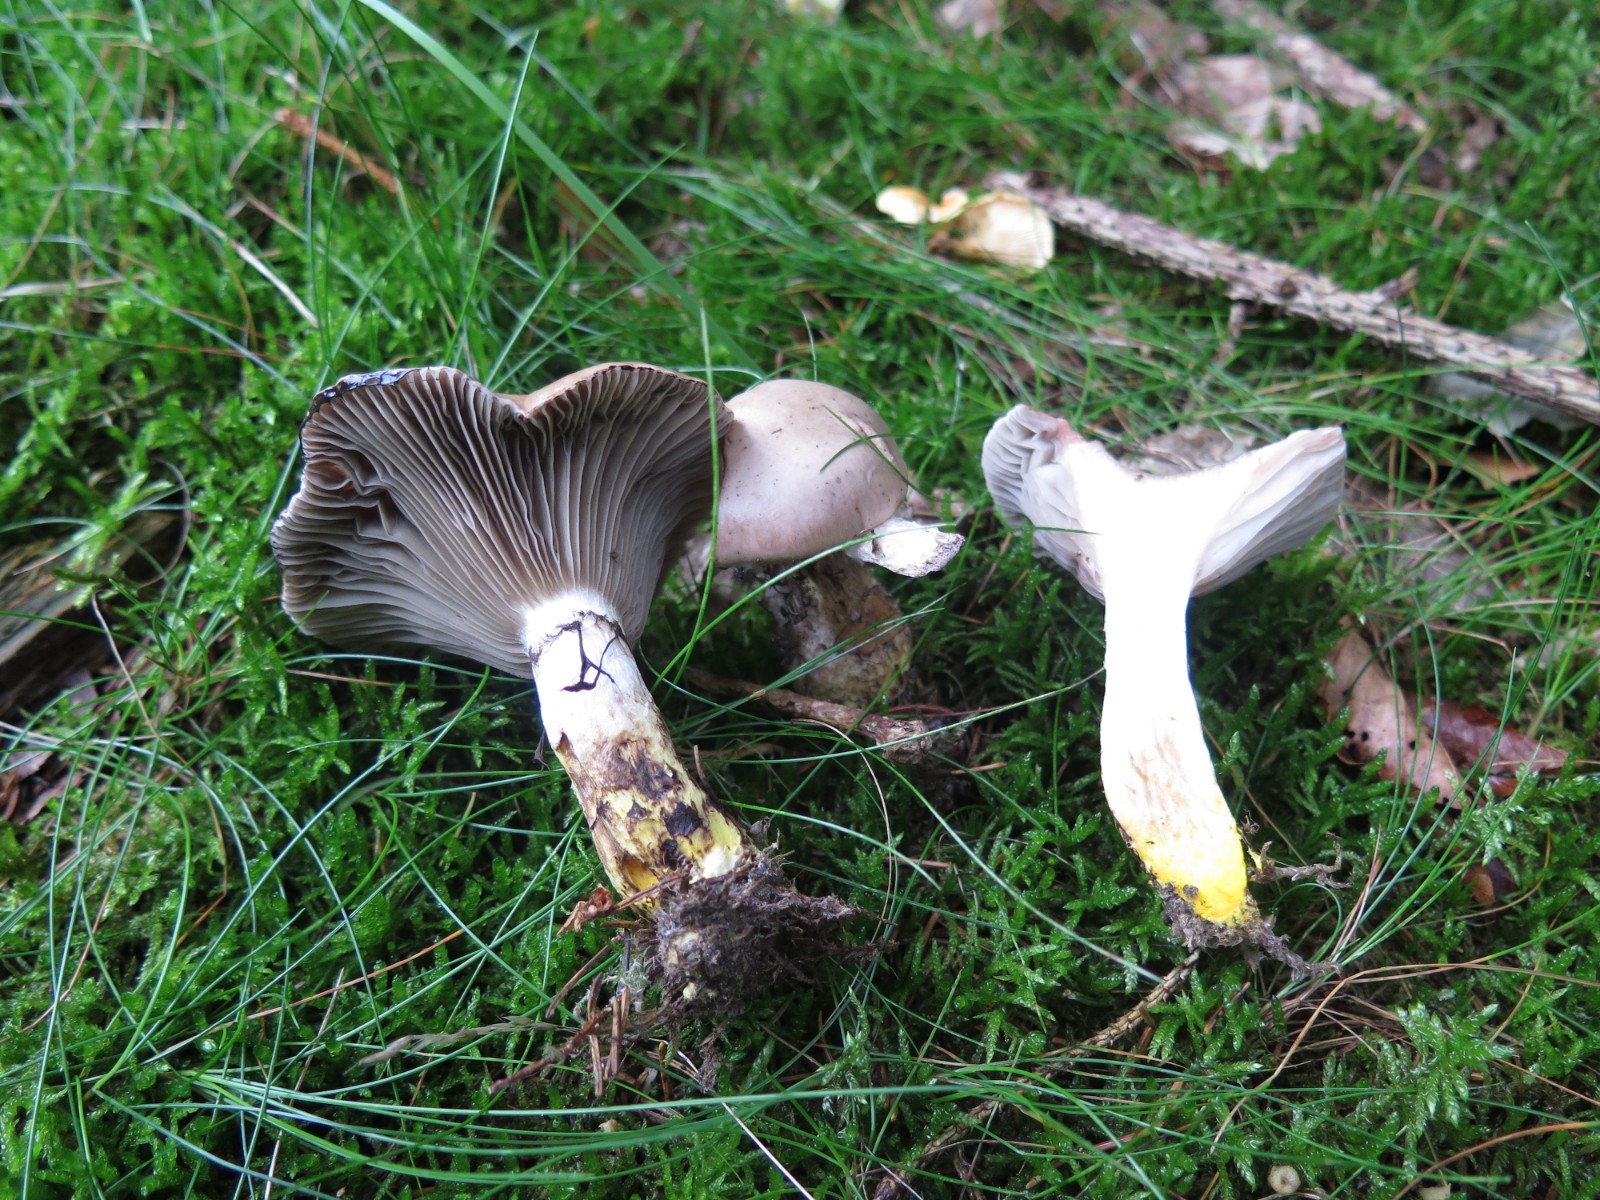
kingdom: Fungi
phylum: Basidiomycota
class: Agaricomycetes
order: Boletales
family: Gomphidiaceae
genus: Gomphidius
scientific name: Gomphidius glutinosus
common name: grå slimslør
